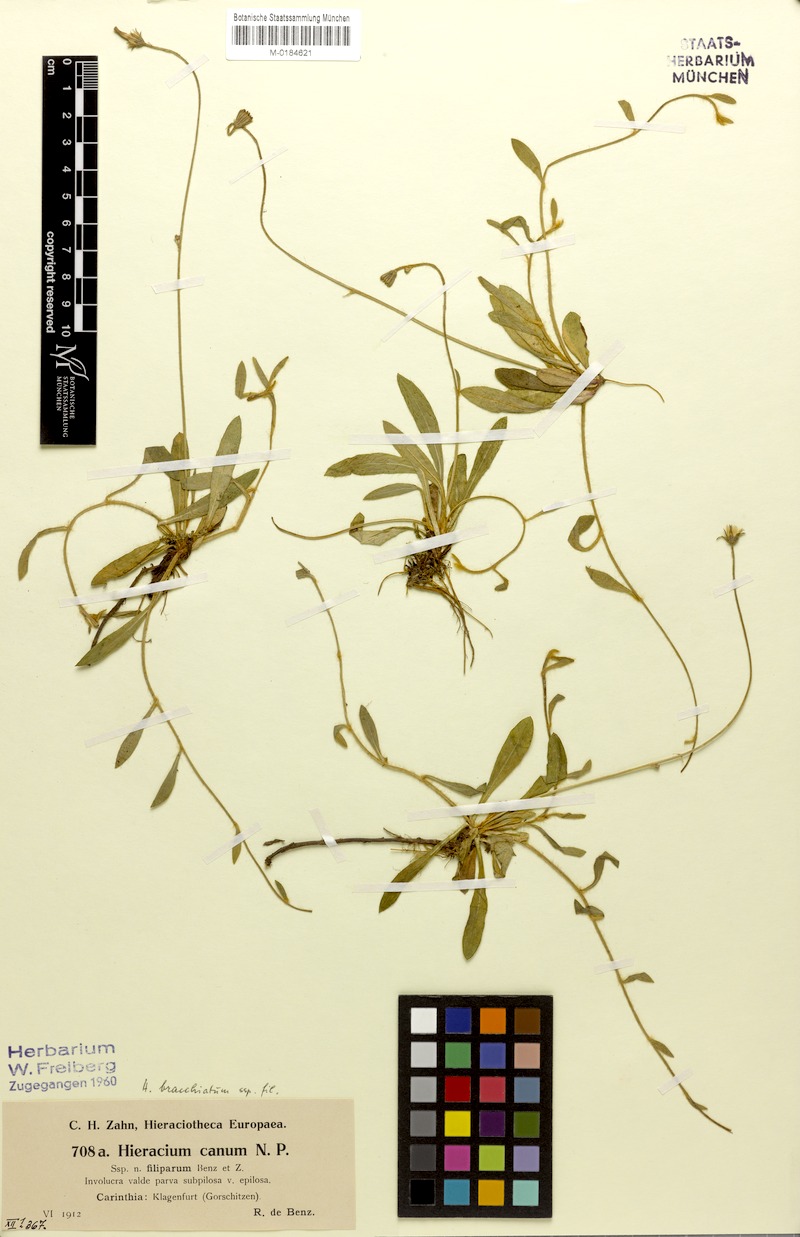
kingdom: Plantae
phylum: Tracheophyta
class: Magnoliopsida
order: Asterales
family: Asteraceae
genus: Pilosella
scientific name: Pilosella acutifolia
